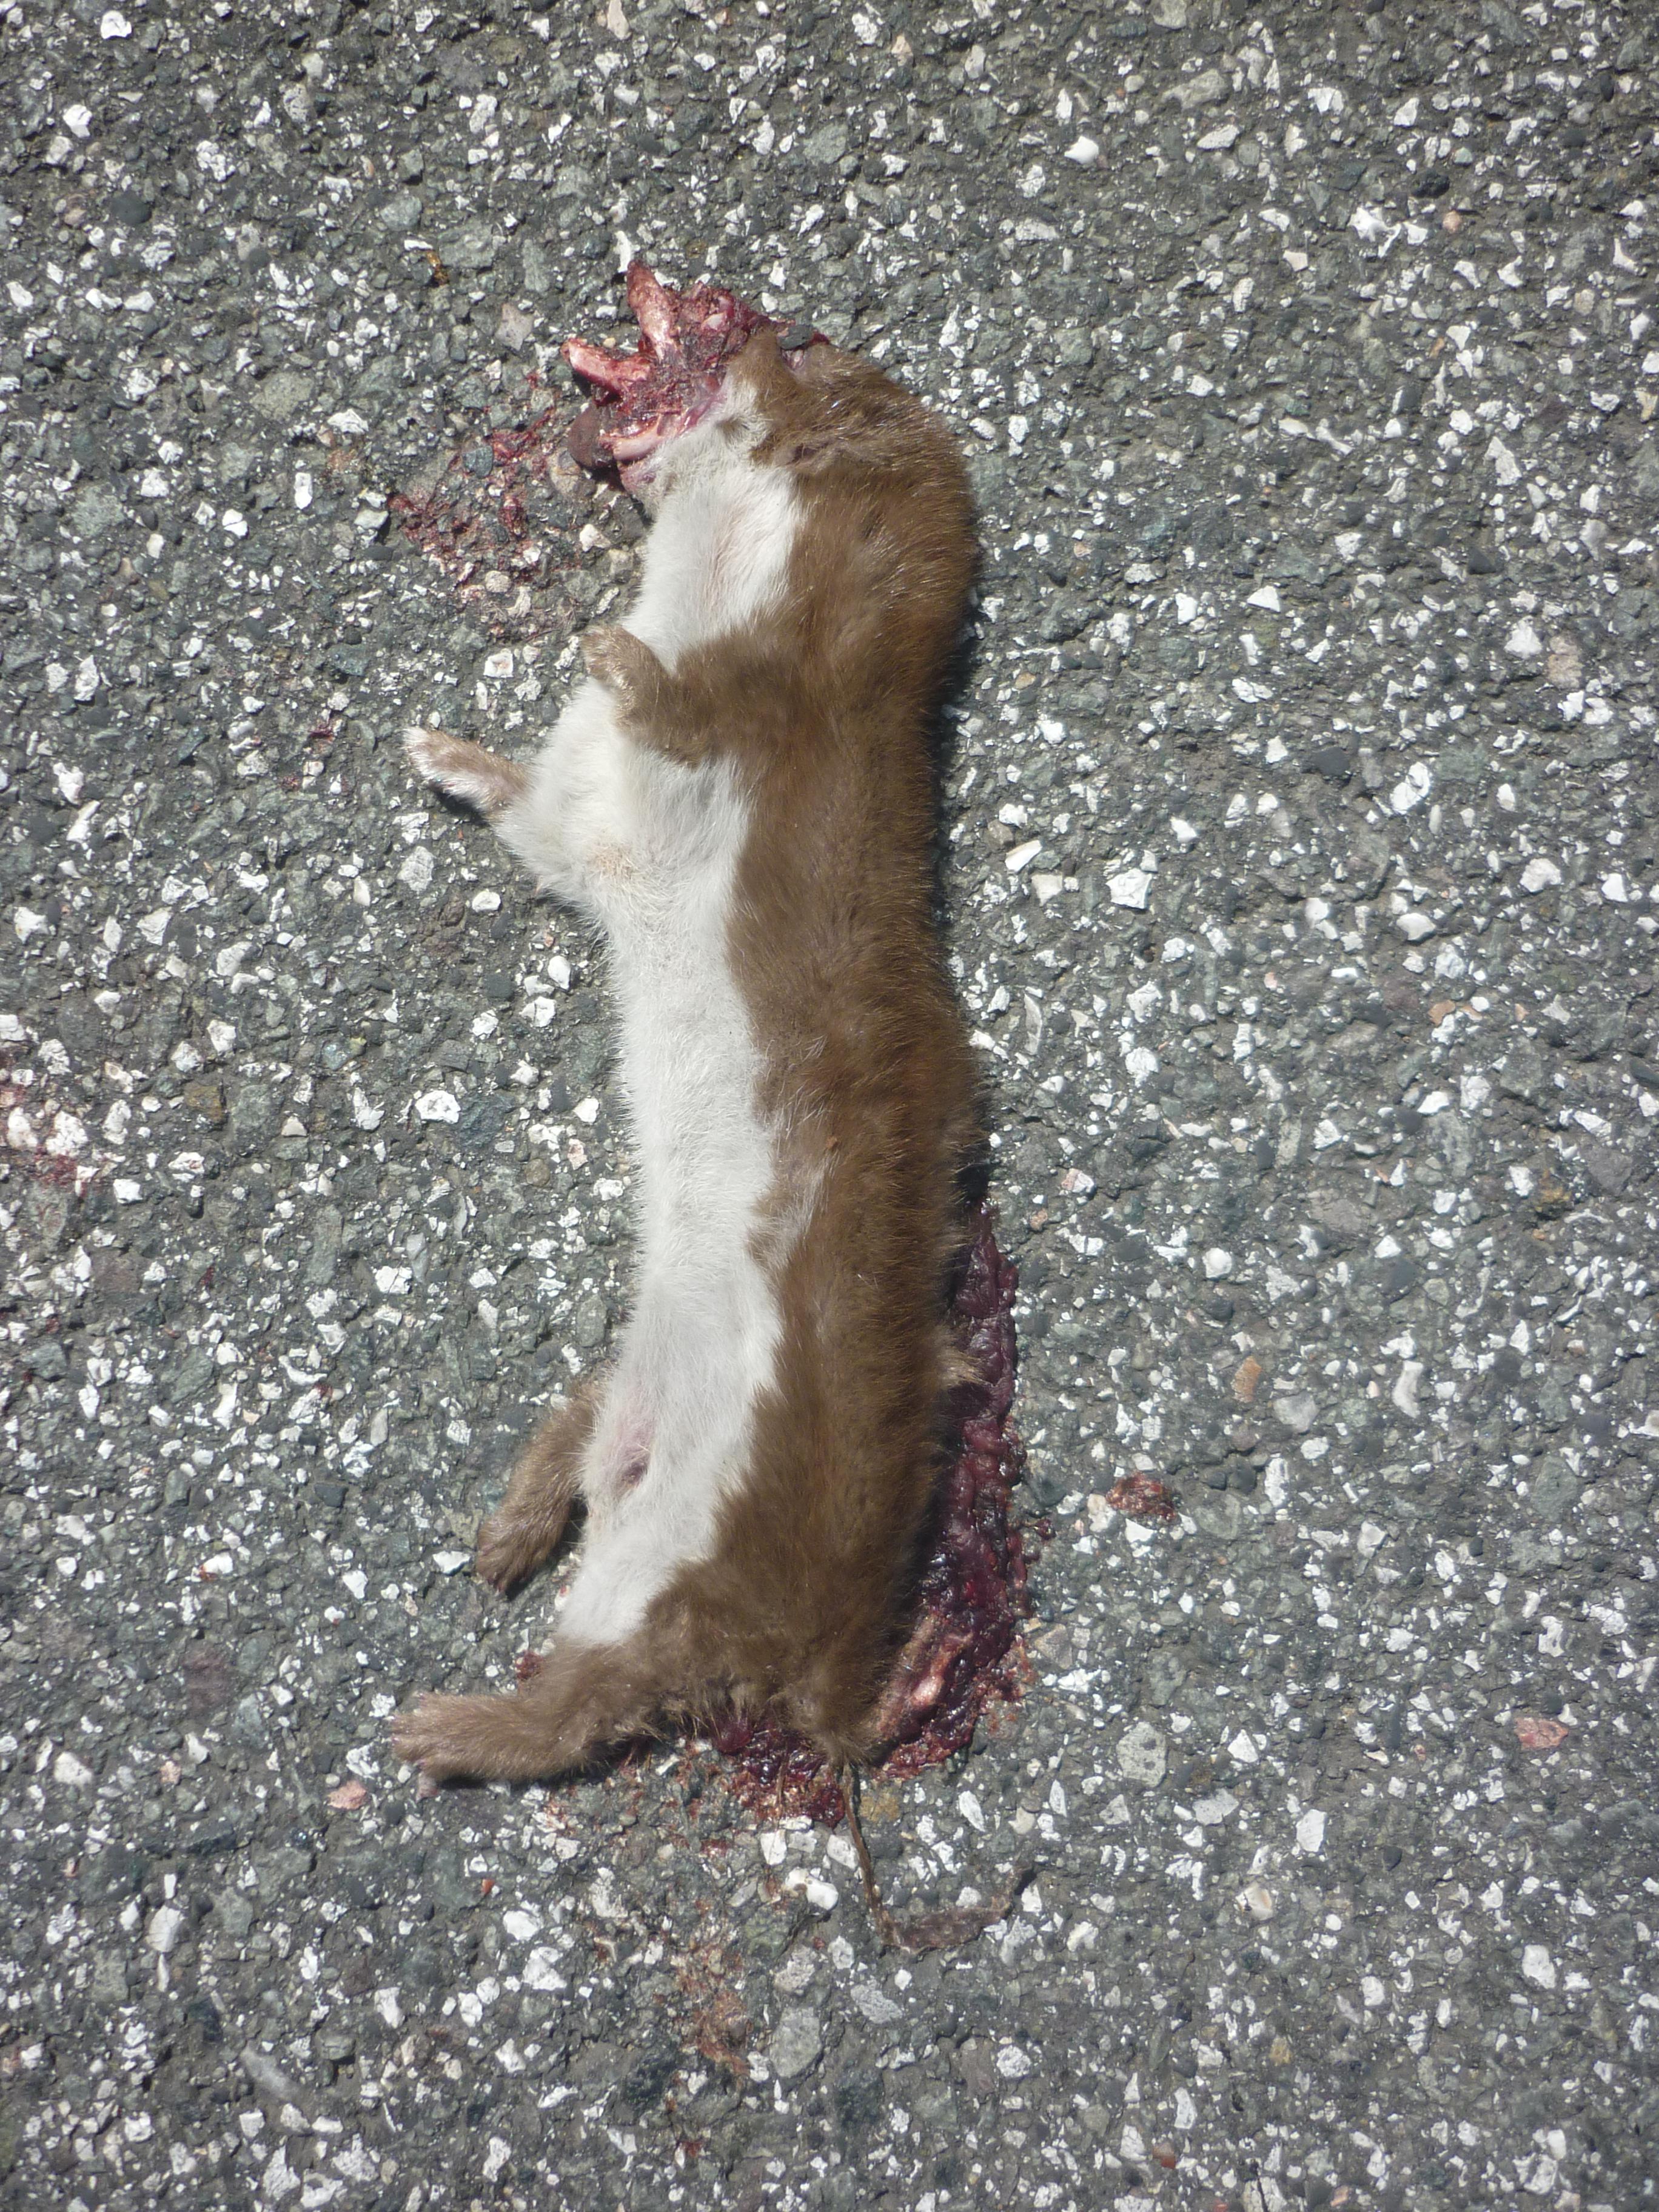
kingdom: Animalia
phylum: Chordata
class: Mammalia
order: Carnivora
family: Mustelidae
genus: Mustela
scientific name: Mustela nivalis
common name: Least weasel
